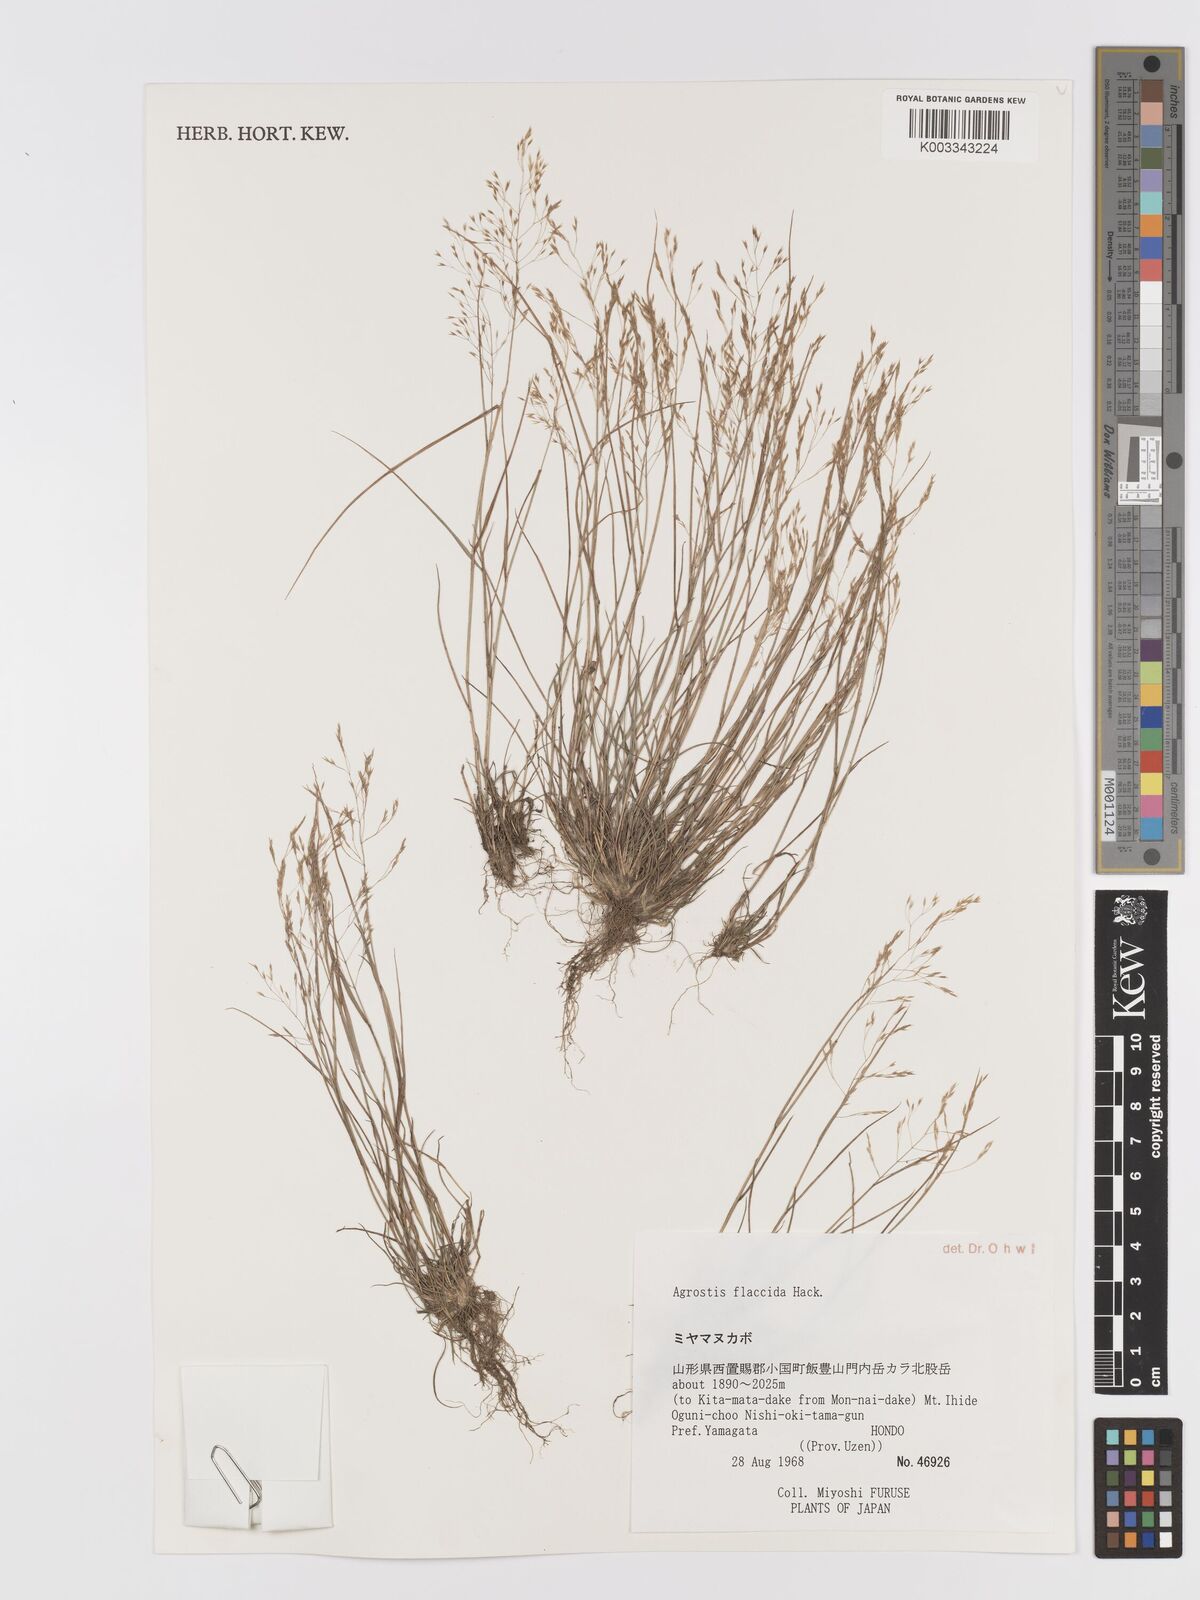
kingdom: Plantae
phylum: Tracheophyta
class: Liliopsida
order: Poales
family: Poaceae
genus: Agrostis
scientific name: Agrostis flaccida
